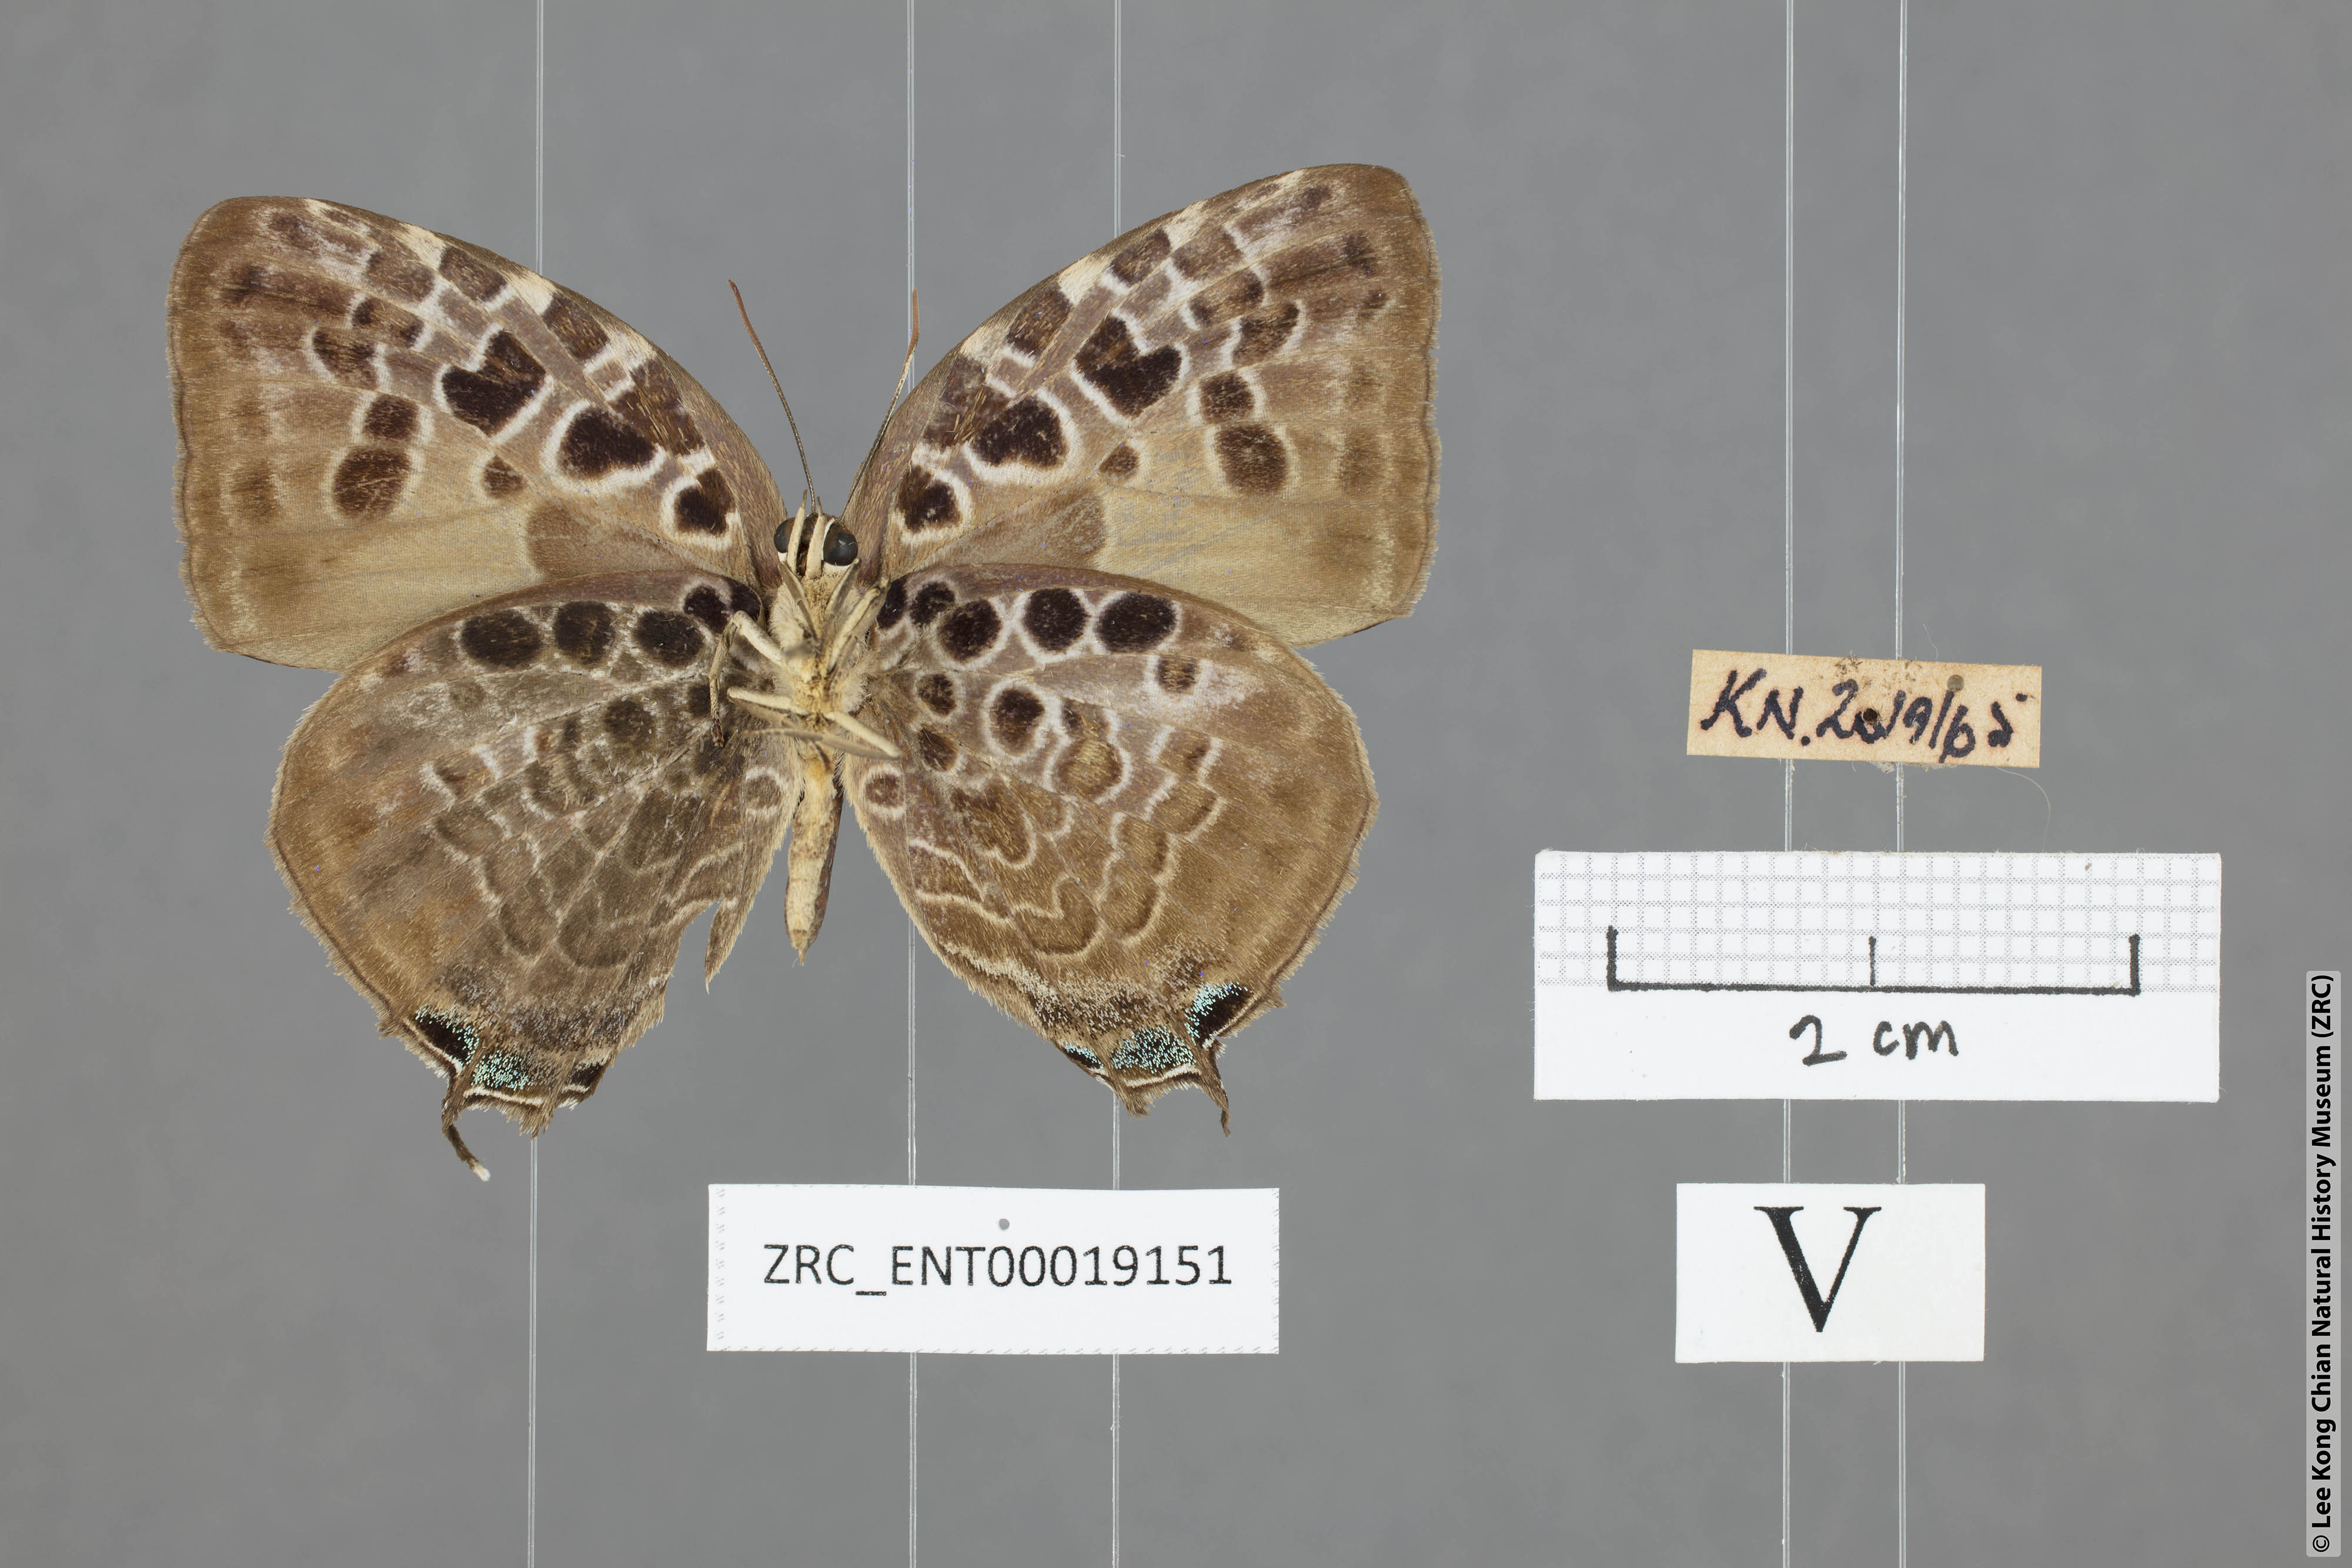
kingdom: Animalia
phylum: Arthropoda
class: Insecta
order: Lepidoptera
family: Lycaenidae
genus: Arhopala
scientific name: Arhopala anthelus
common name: Bushblue
